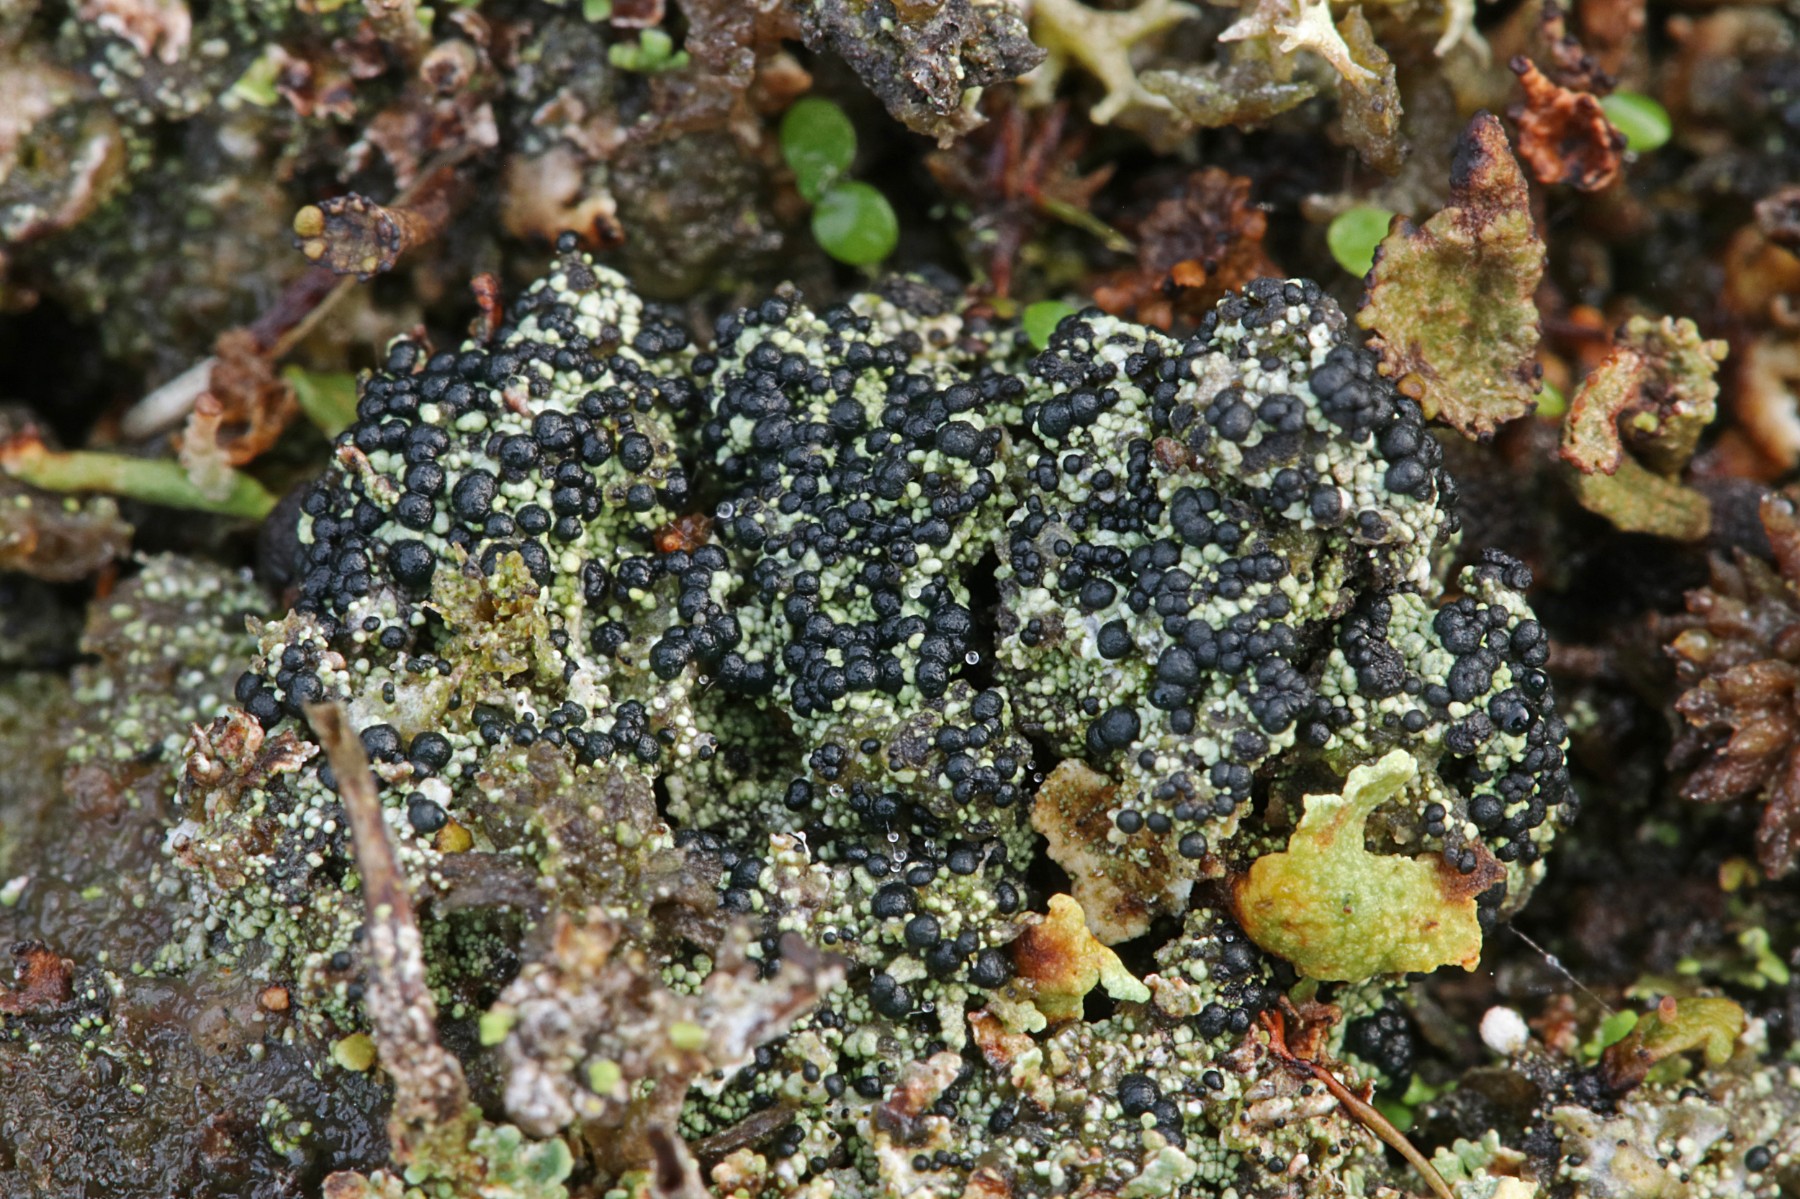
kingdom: Fungi
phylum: Ascomycota
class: Lecanoromycetes
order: Lecanorales
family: Byssolomataceae
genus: Micarea
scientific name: Micarea lignaria
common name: tørve-knaplav
